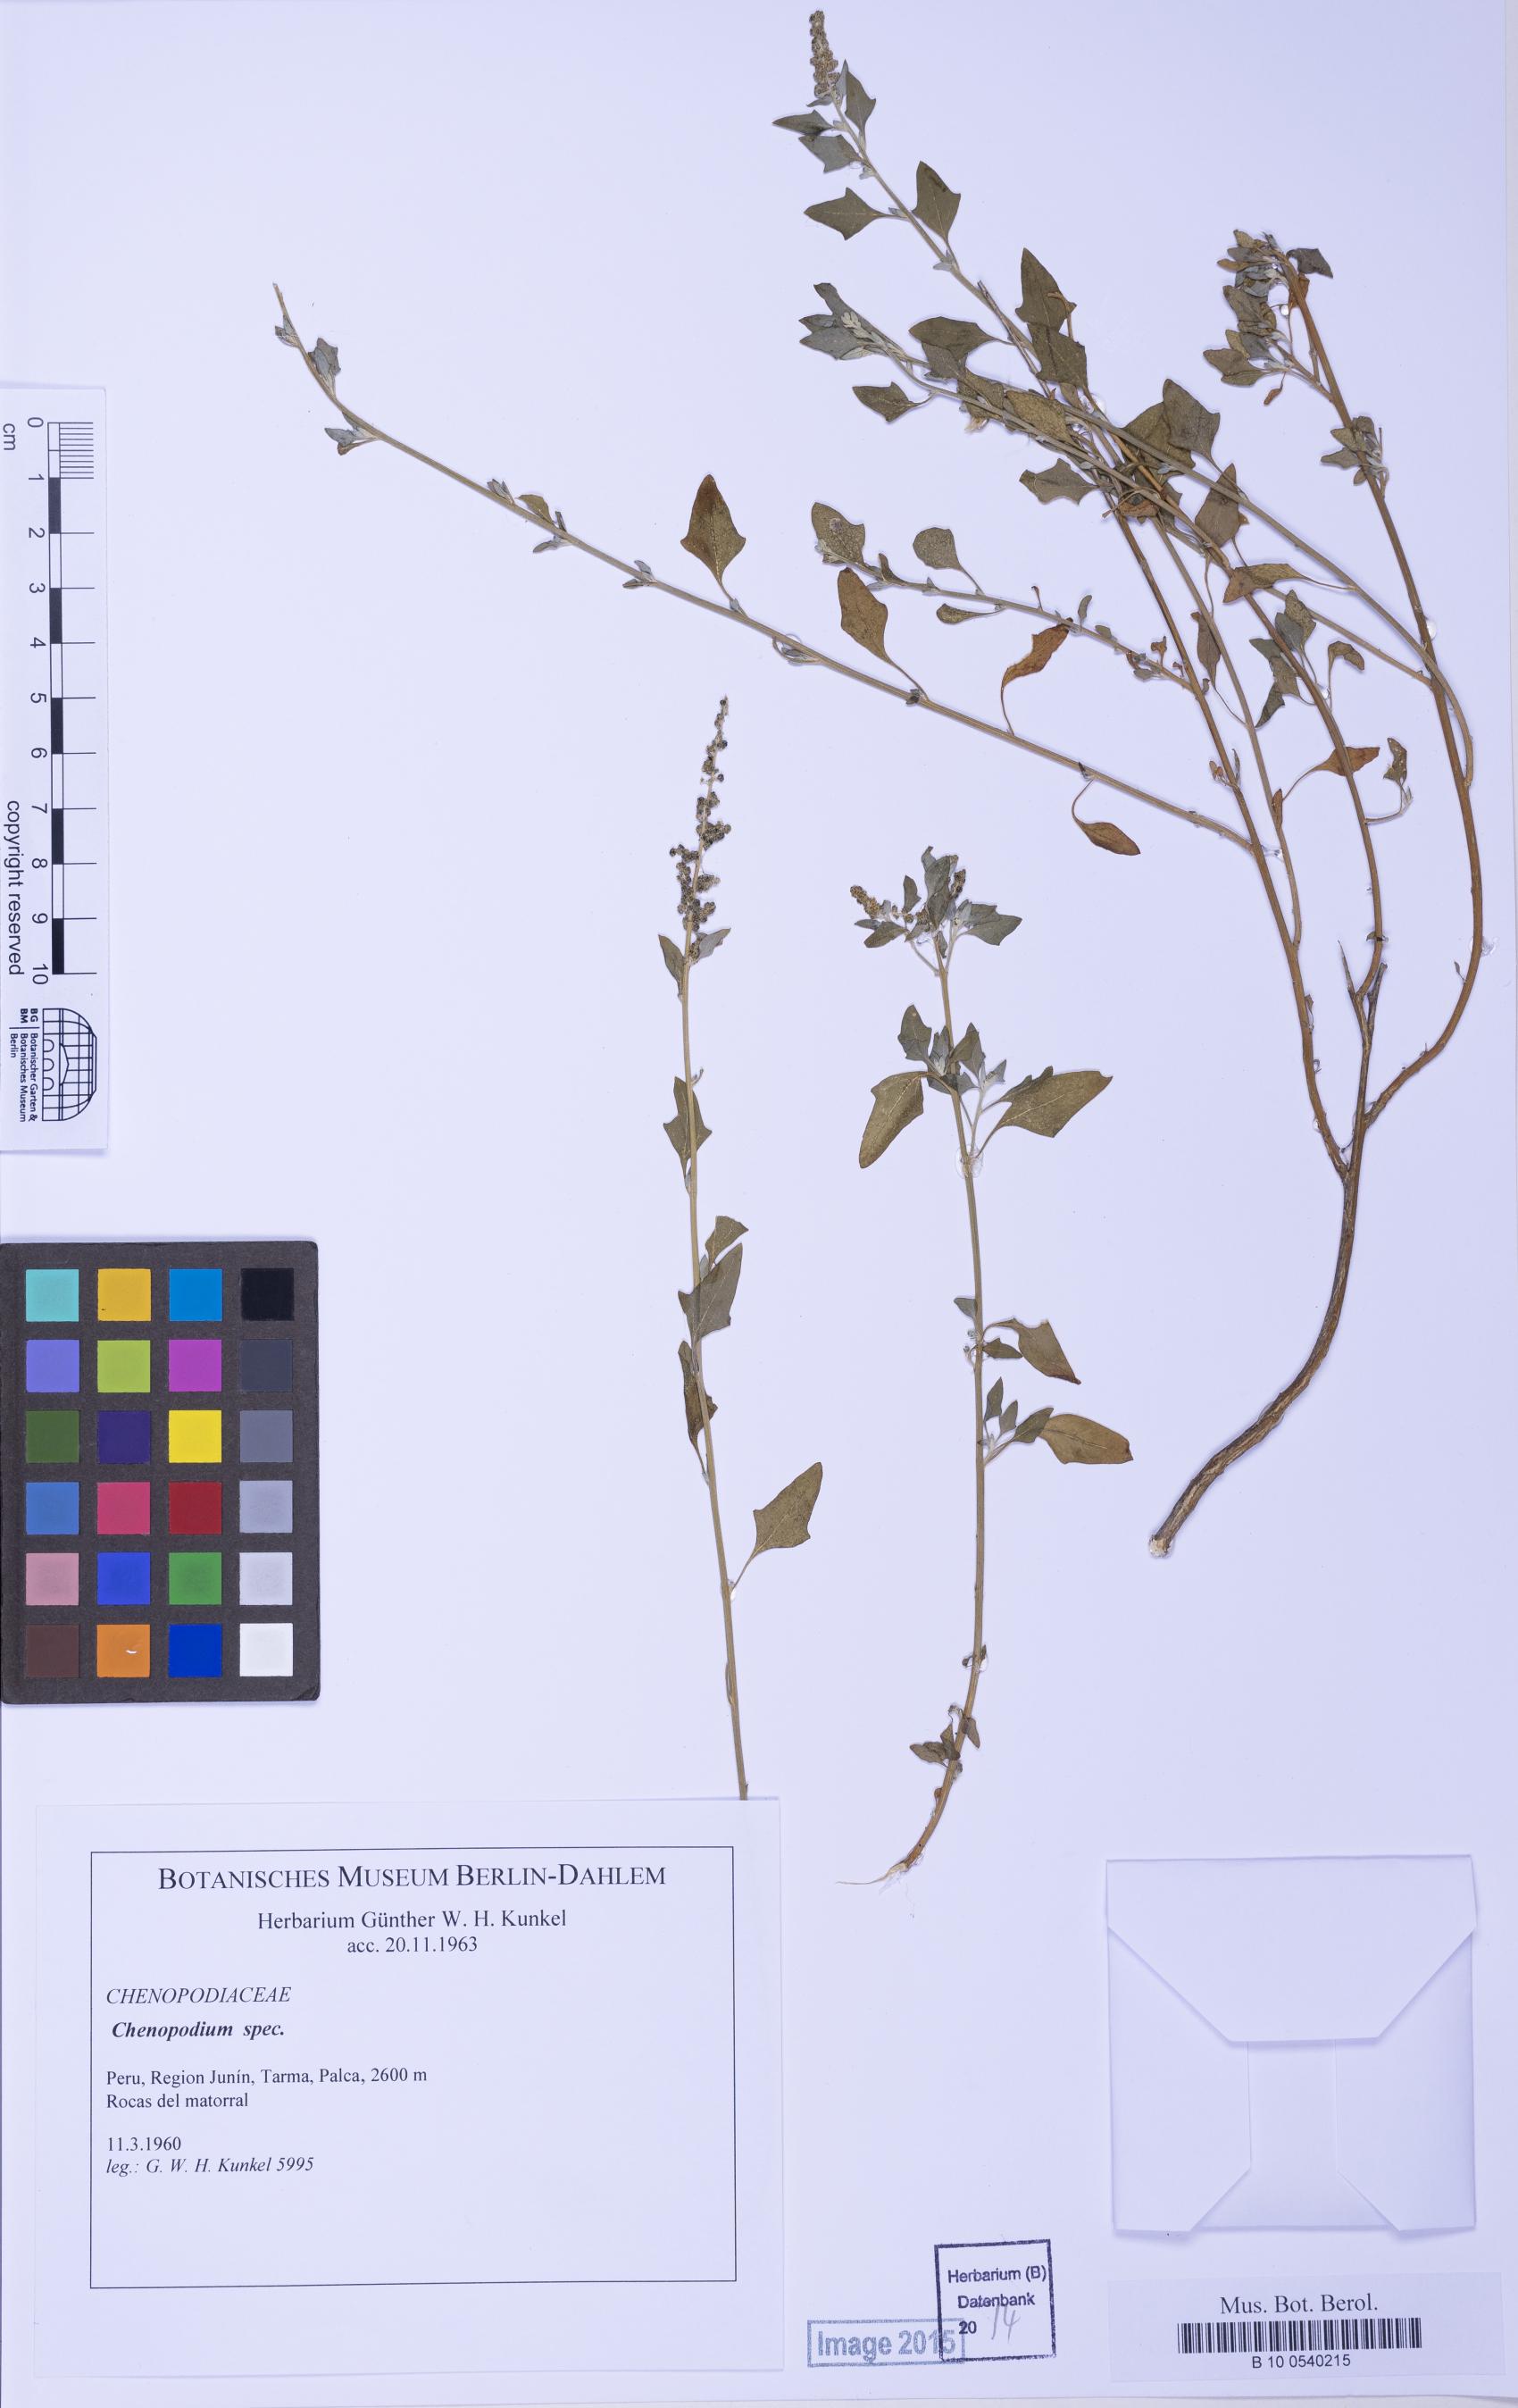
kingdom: Plantae
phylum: Tracheophyta
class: Magnoliopsida
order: Caryophyllales
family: Amaranthaceae
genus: Chenopodium
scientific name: Chenopodium
